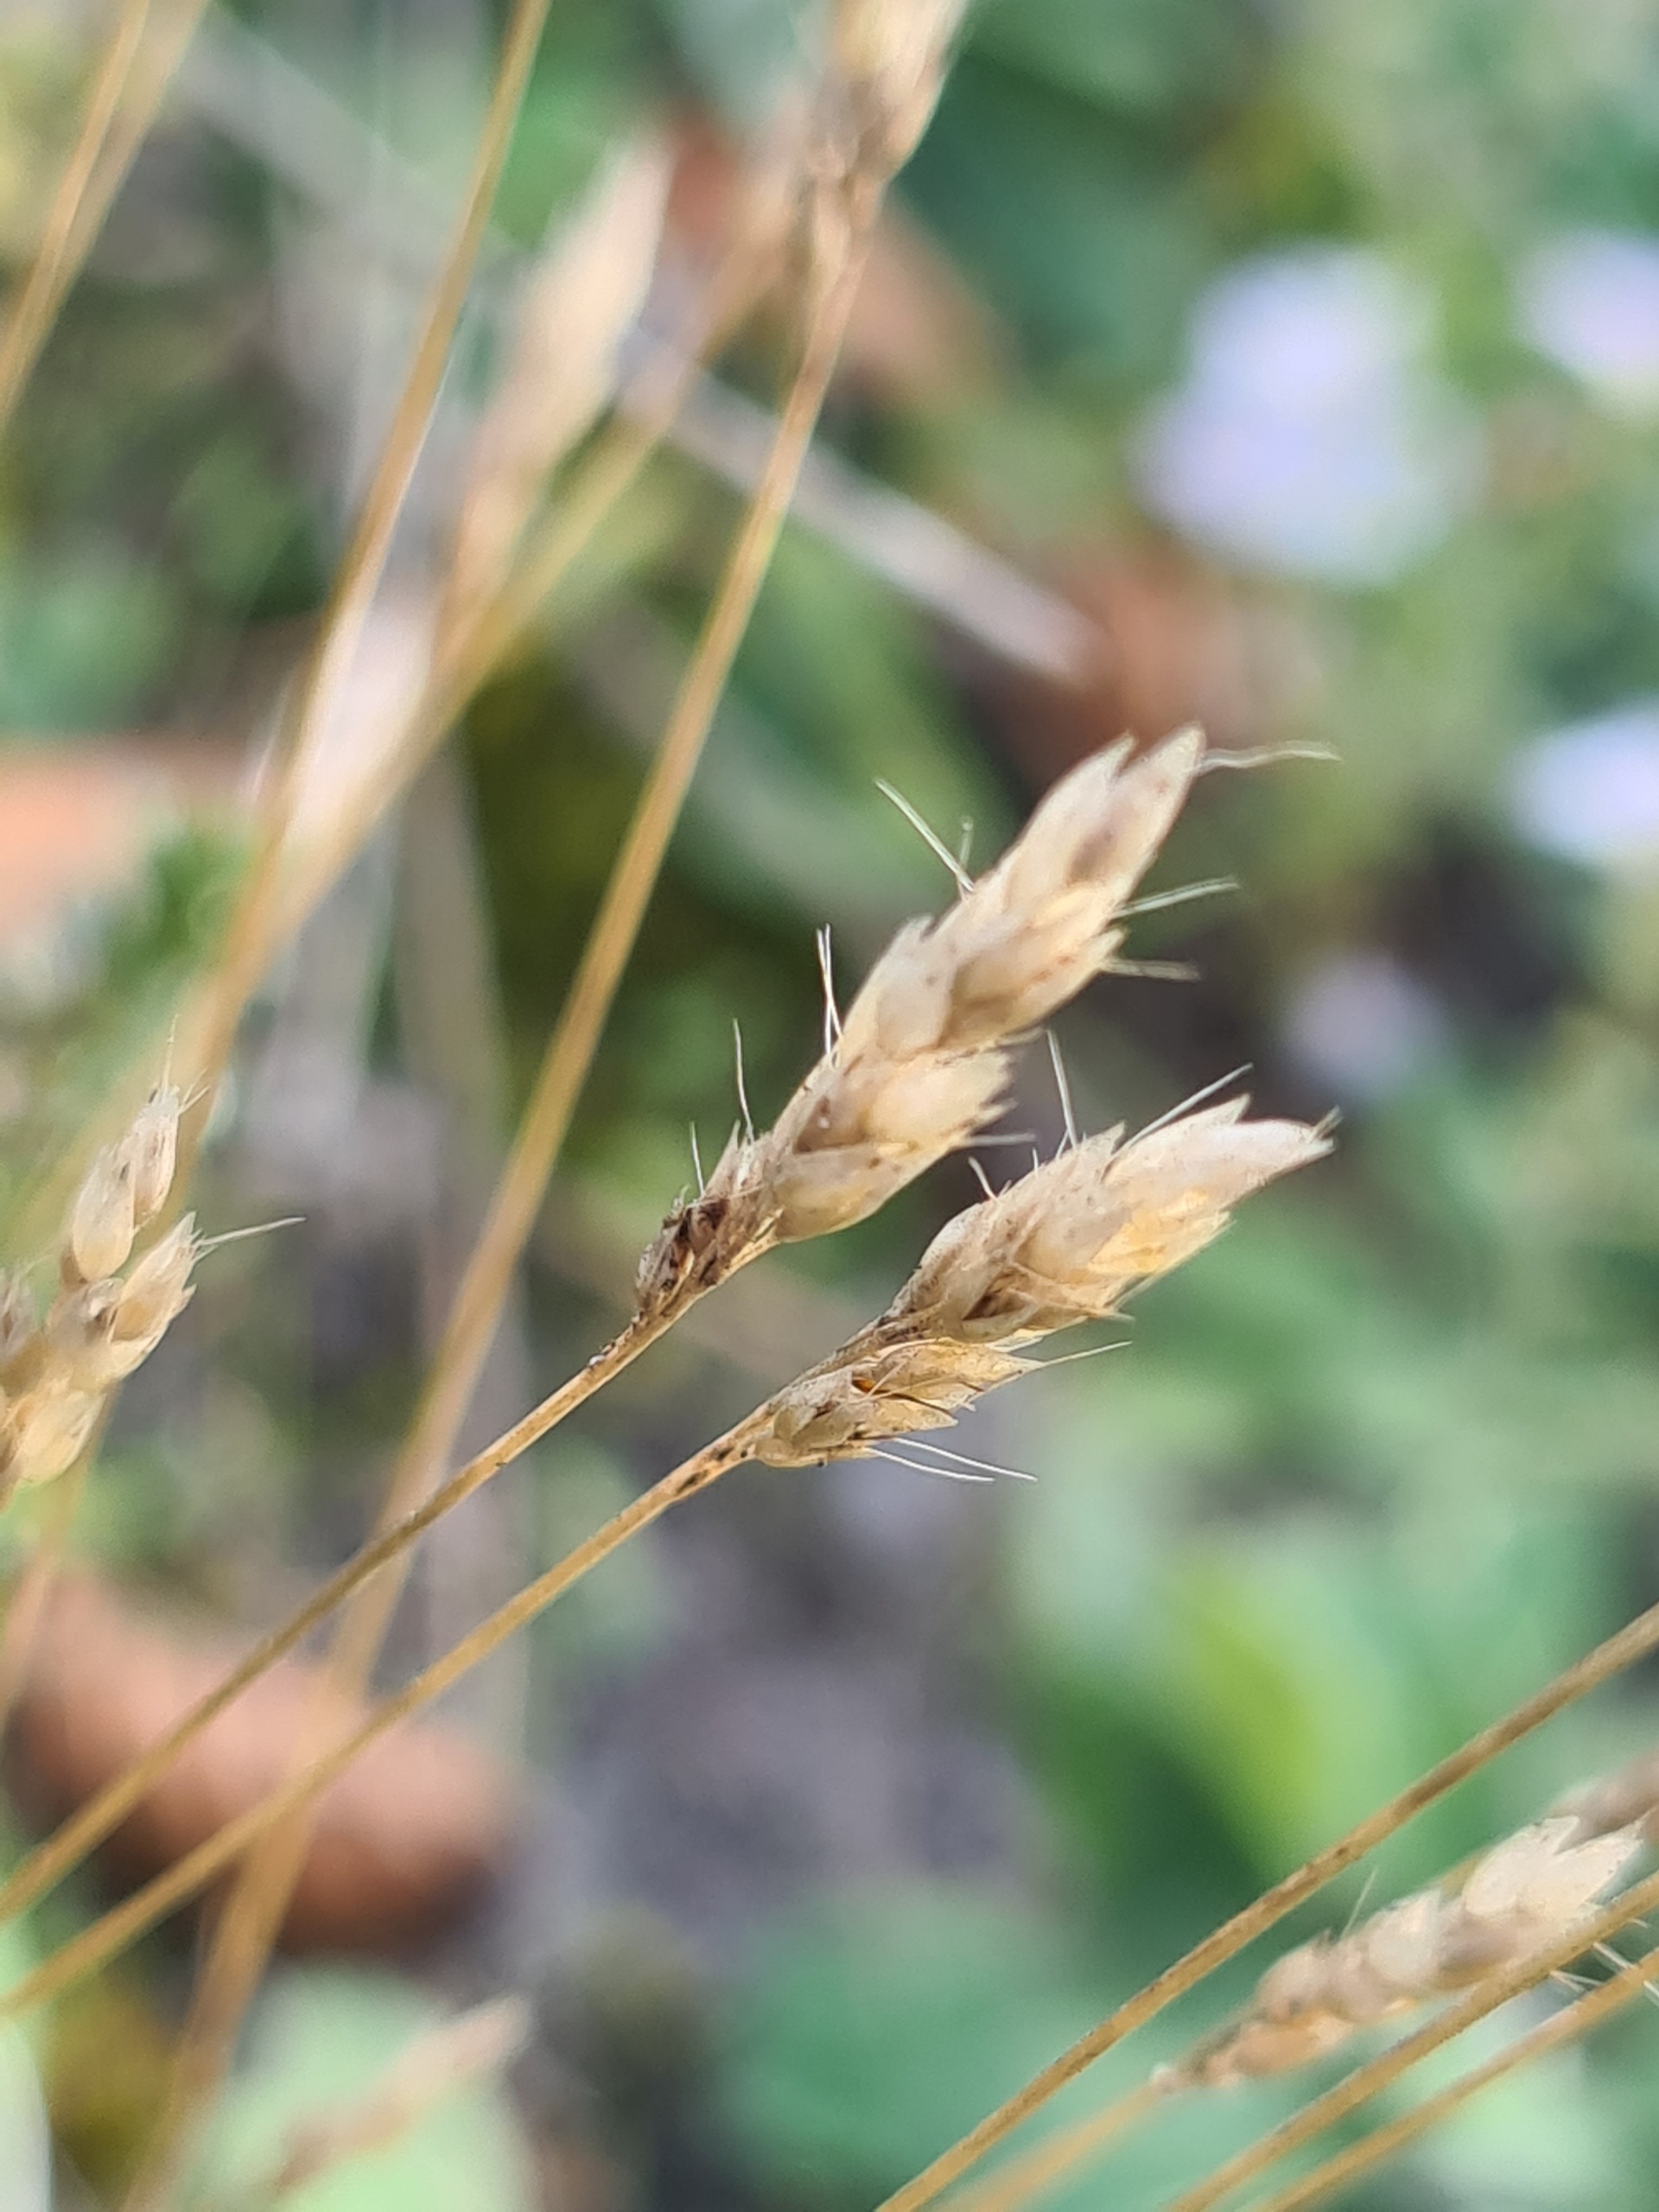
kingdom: Plantae
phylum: Tracheophyta
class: Liliopsida
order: Poales
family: Poaceae
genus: Aira
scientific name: Aira praecox
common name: Tidlig dværgbunke
